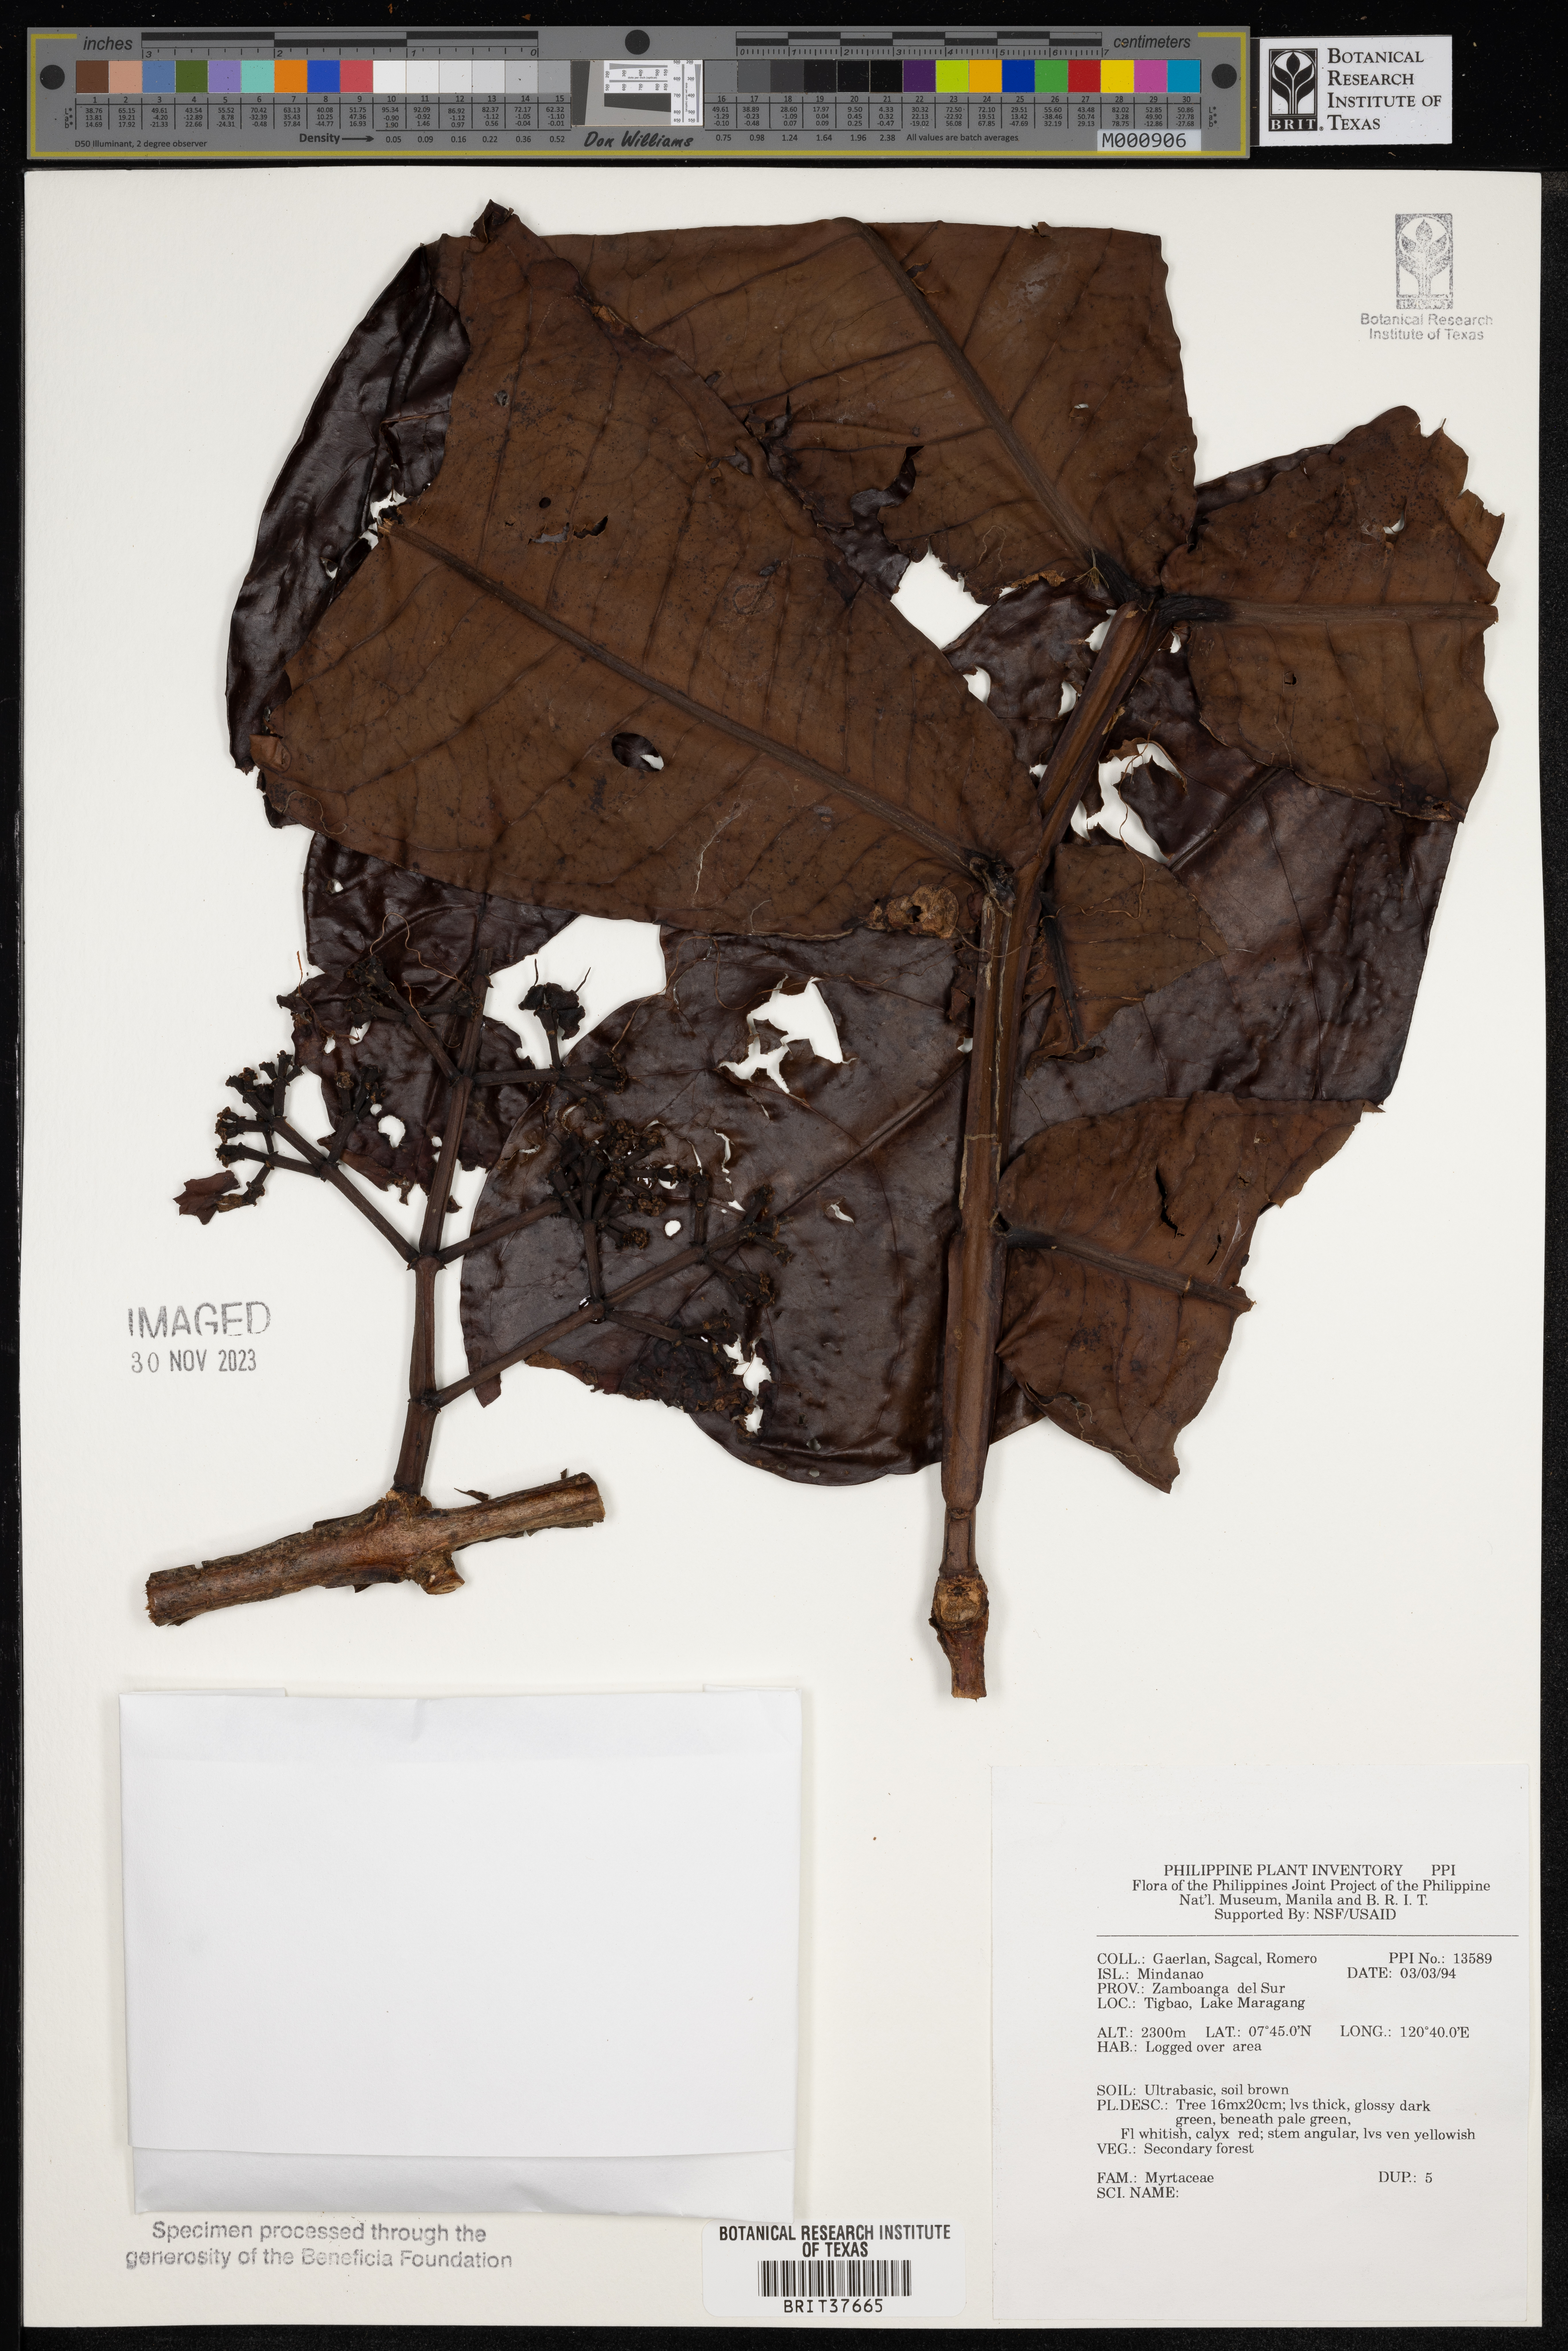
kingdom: Plantae
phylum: Tracheophyta
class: Magnoliopsida
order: Myrtales
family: Myrtaceae
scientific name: Myrtaceae
